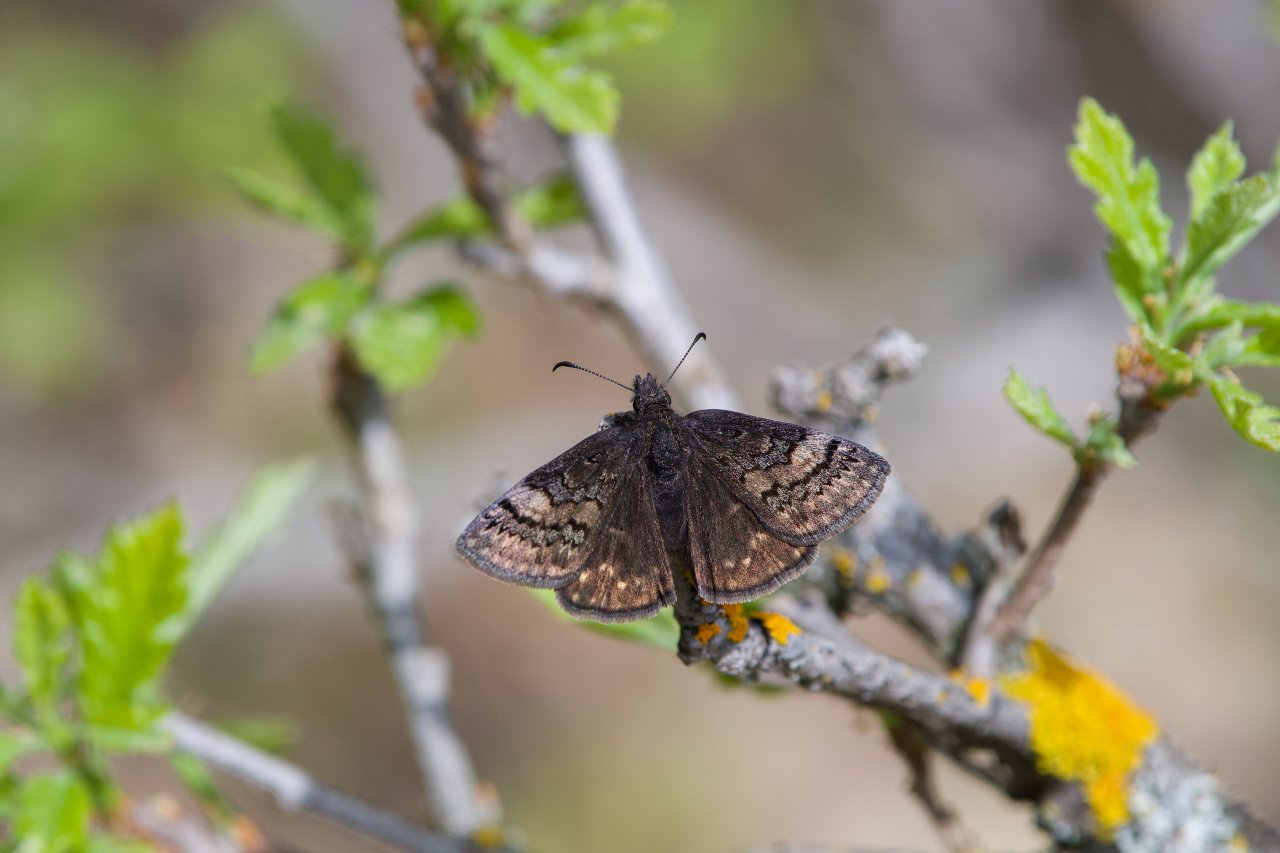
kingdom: Animalia
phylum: Arthropoda
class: Insecta
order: Lepidoptera
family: Hesperiidae
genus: Erynnis
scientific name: Erynnis
